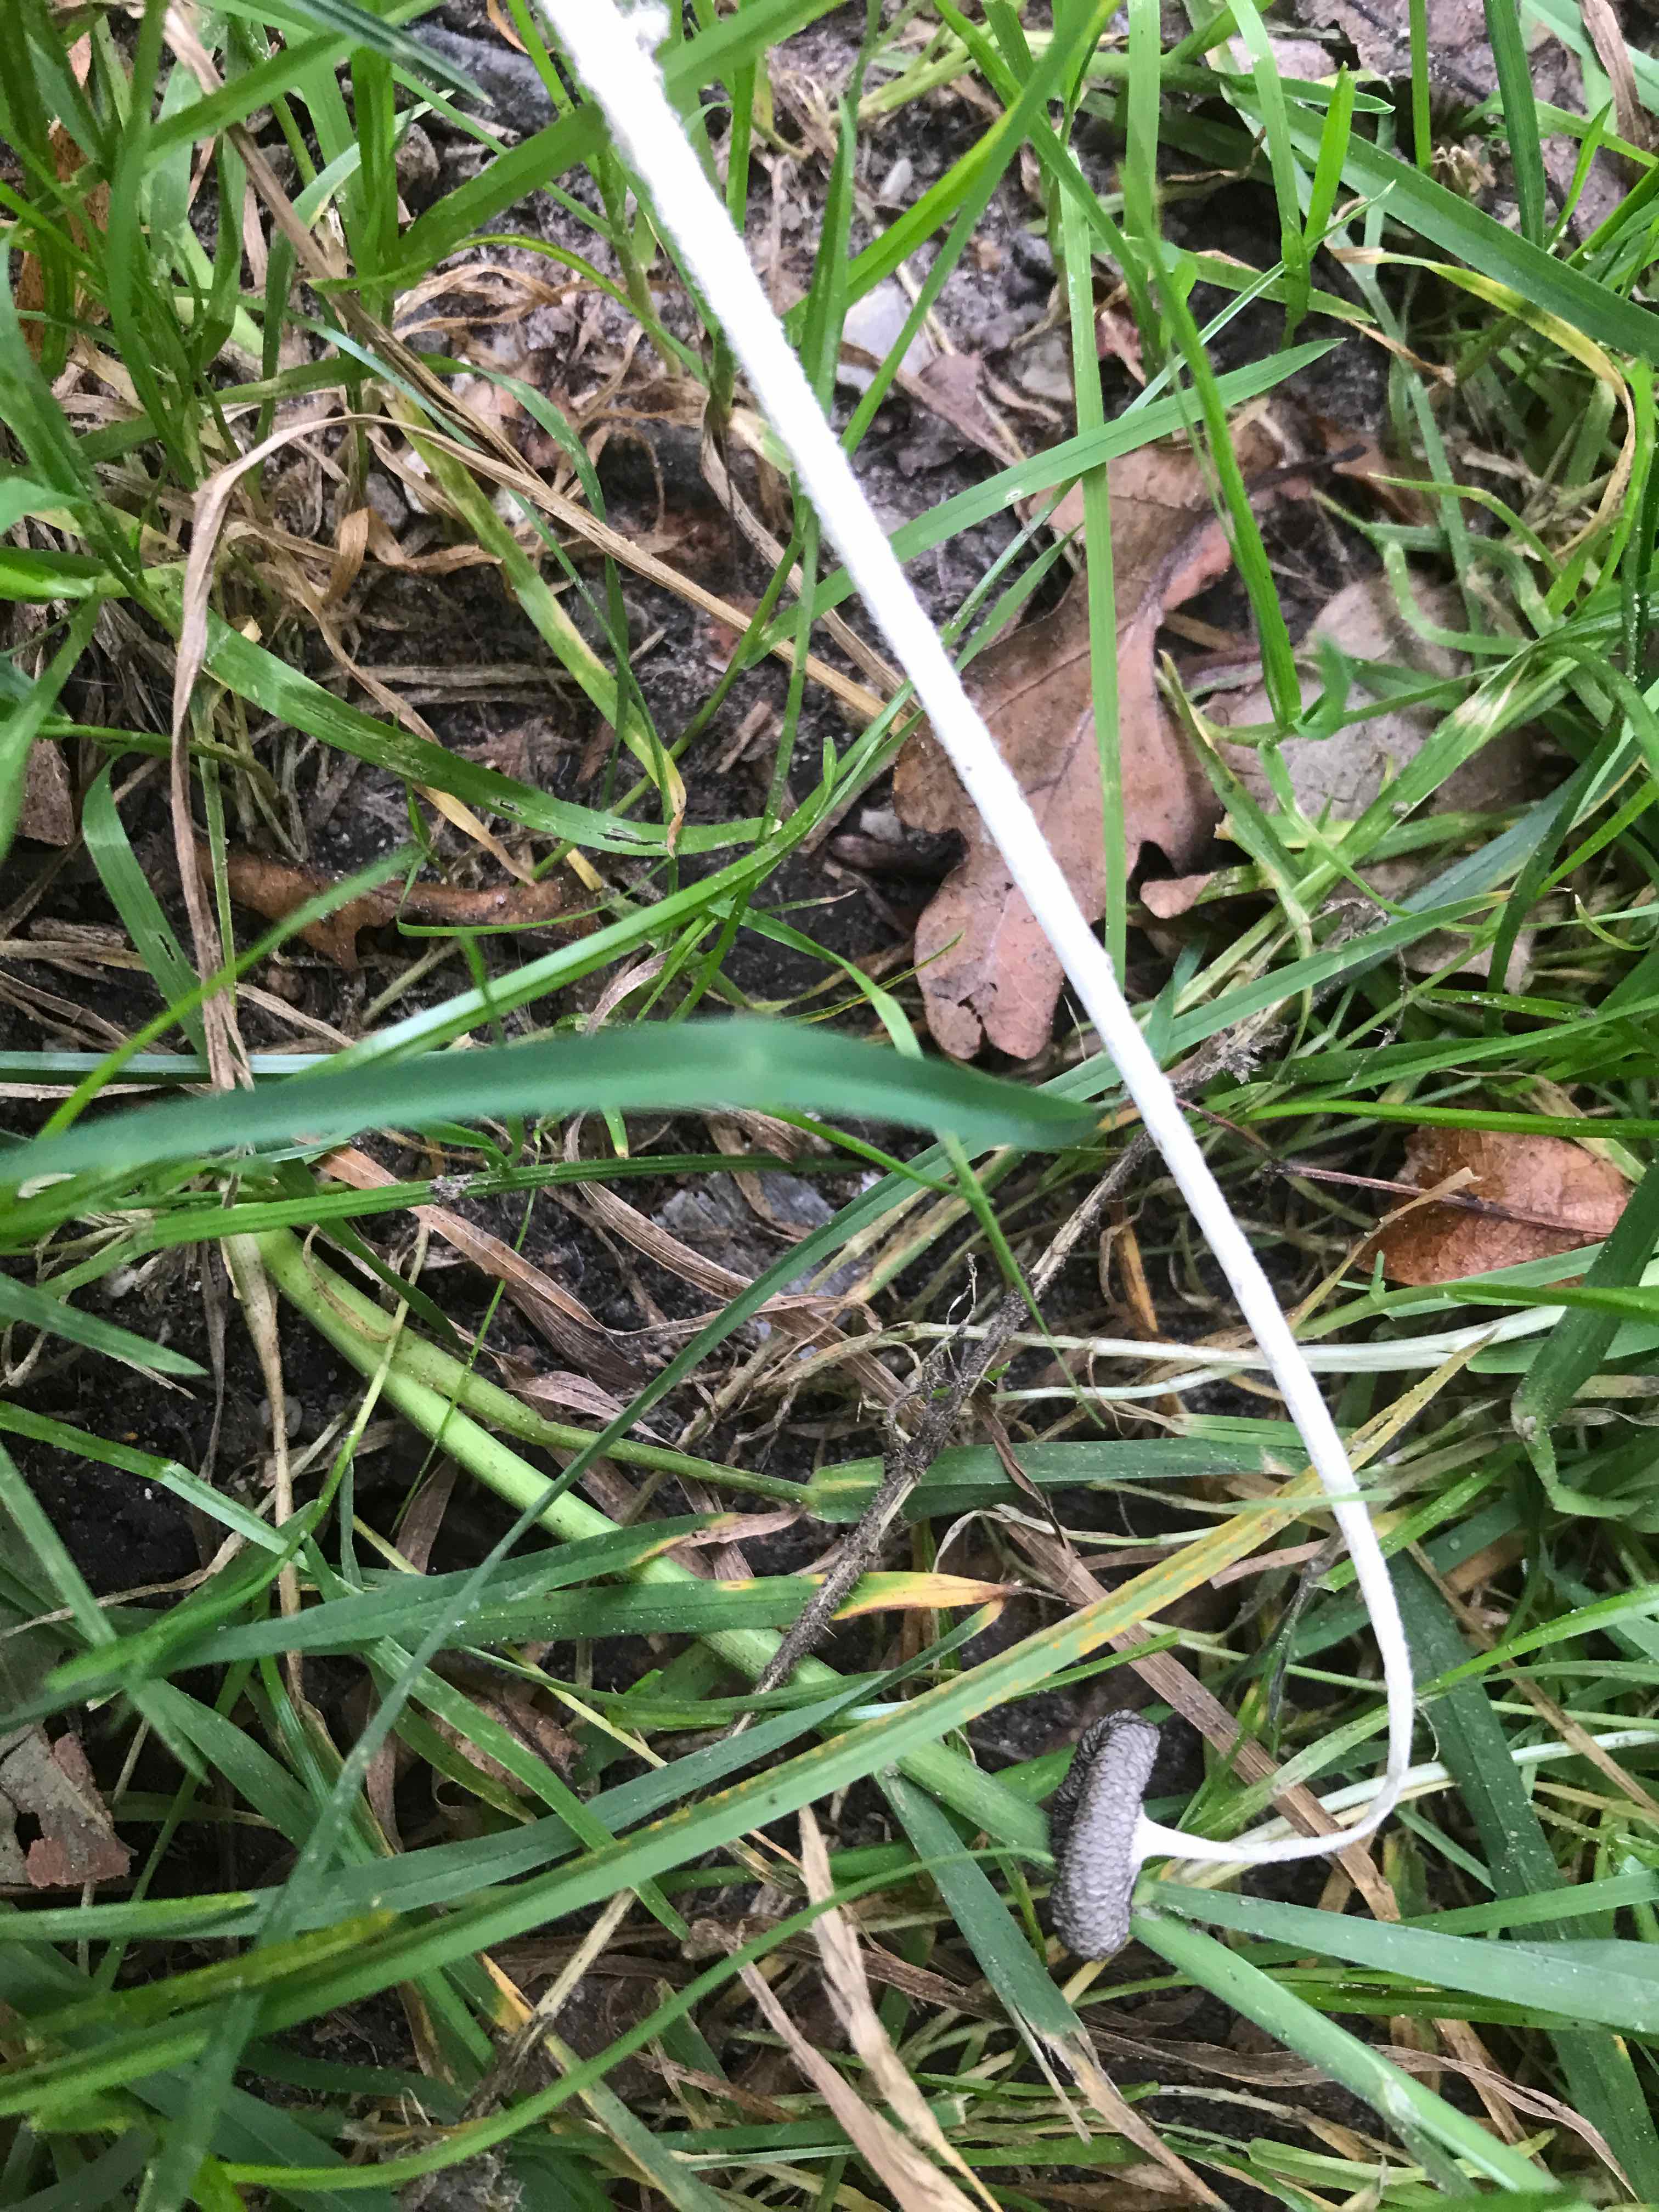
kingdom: Fungi
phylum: Basidiomycota
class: Agaricomycetes
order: Agaricales
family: Psathyrellaceae
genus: Coprinopsis
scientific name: Coprinopsis lagopus
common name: dunstokket blækhat
